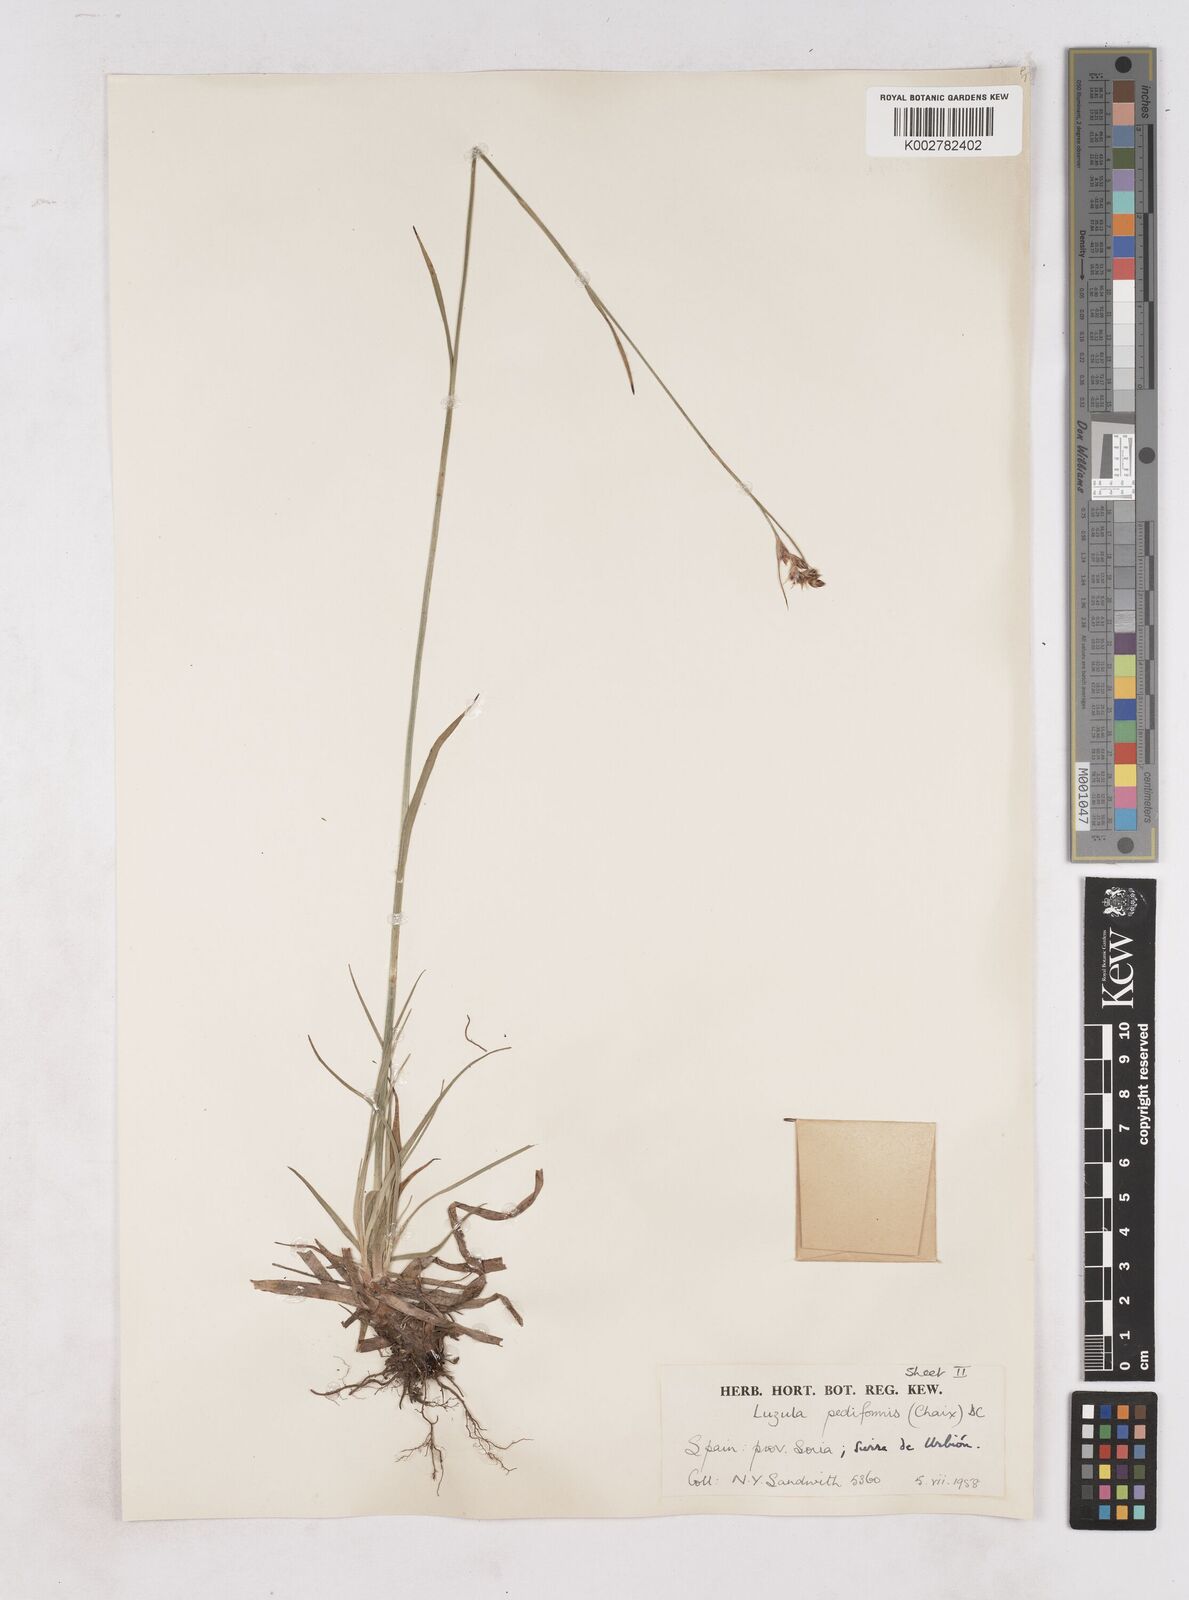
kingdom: Plantae
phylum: Tracheophyta
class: Liliopsida
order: Poales
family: Juncaceae
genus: Luzula
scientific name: Luzula pediformis
